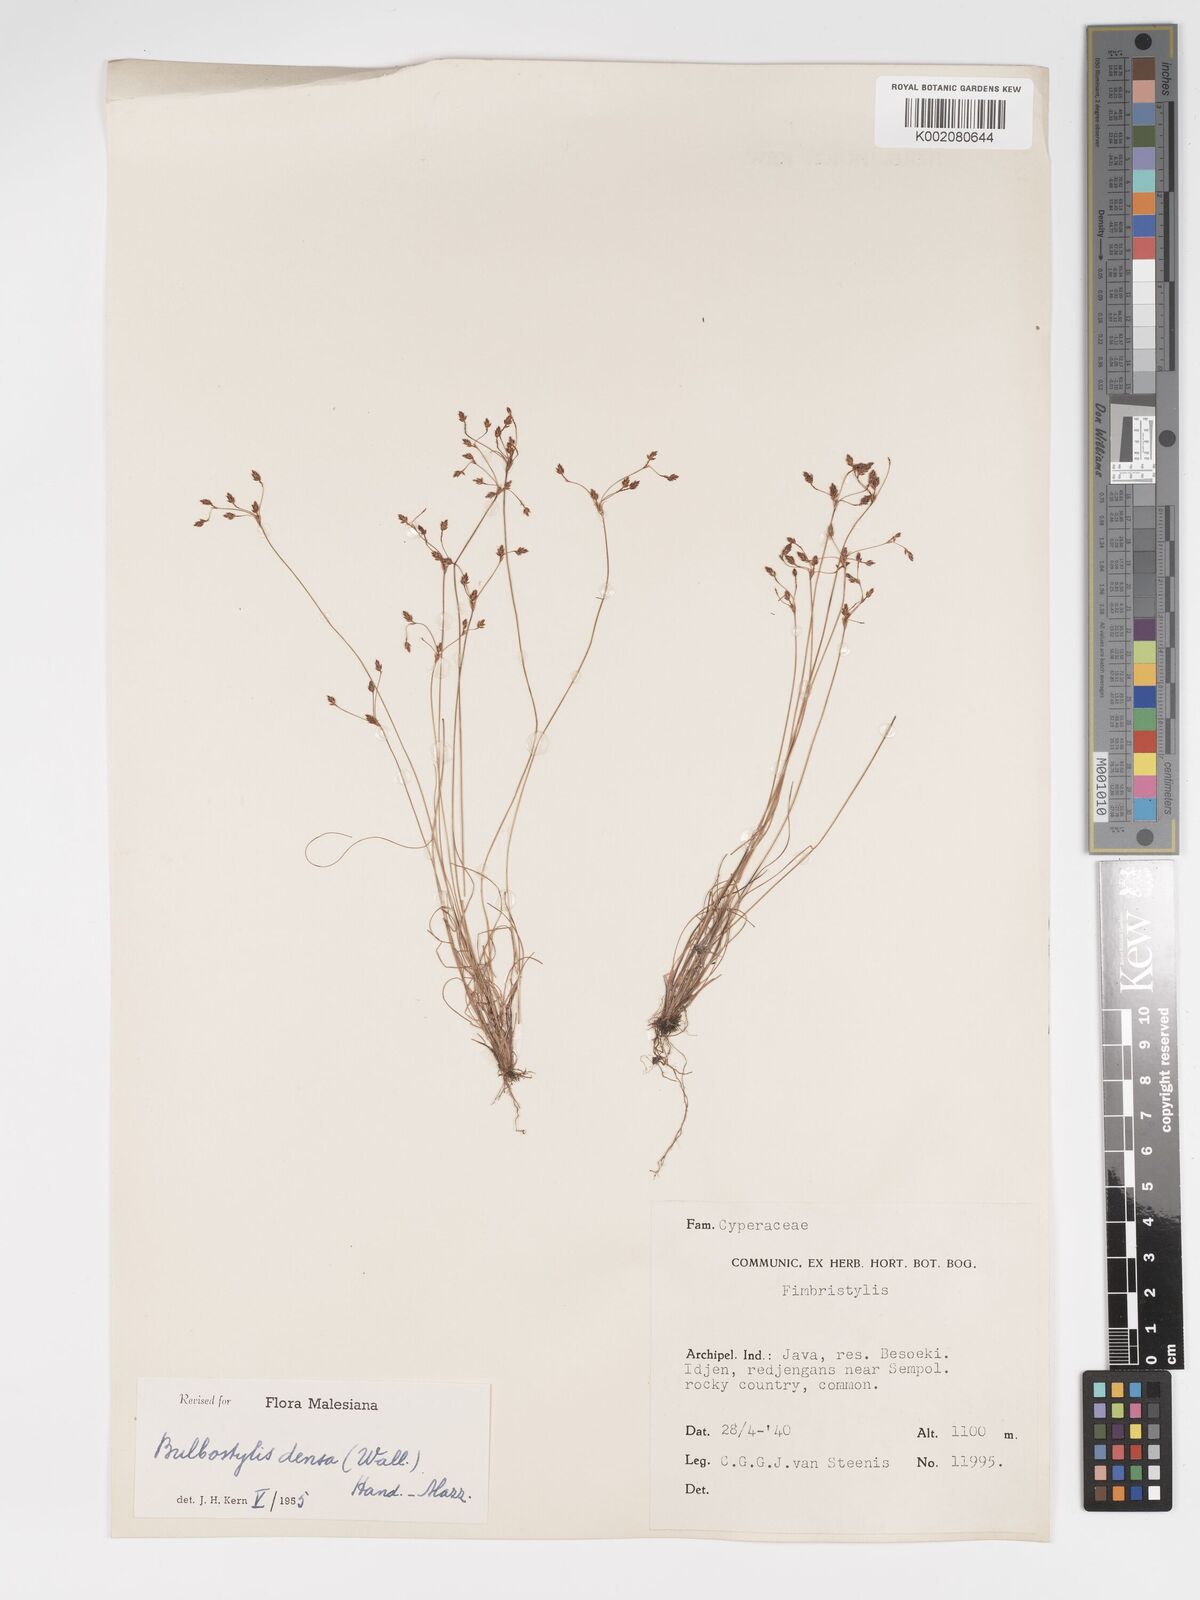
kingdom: Plantae
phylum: Tracheophyta
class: Liliopsida
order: Poales
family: Cyperaceae
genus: Bulbostylis
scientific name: Bulbostylis densa
